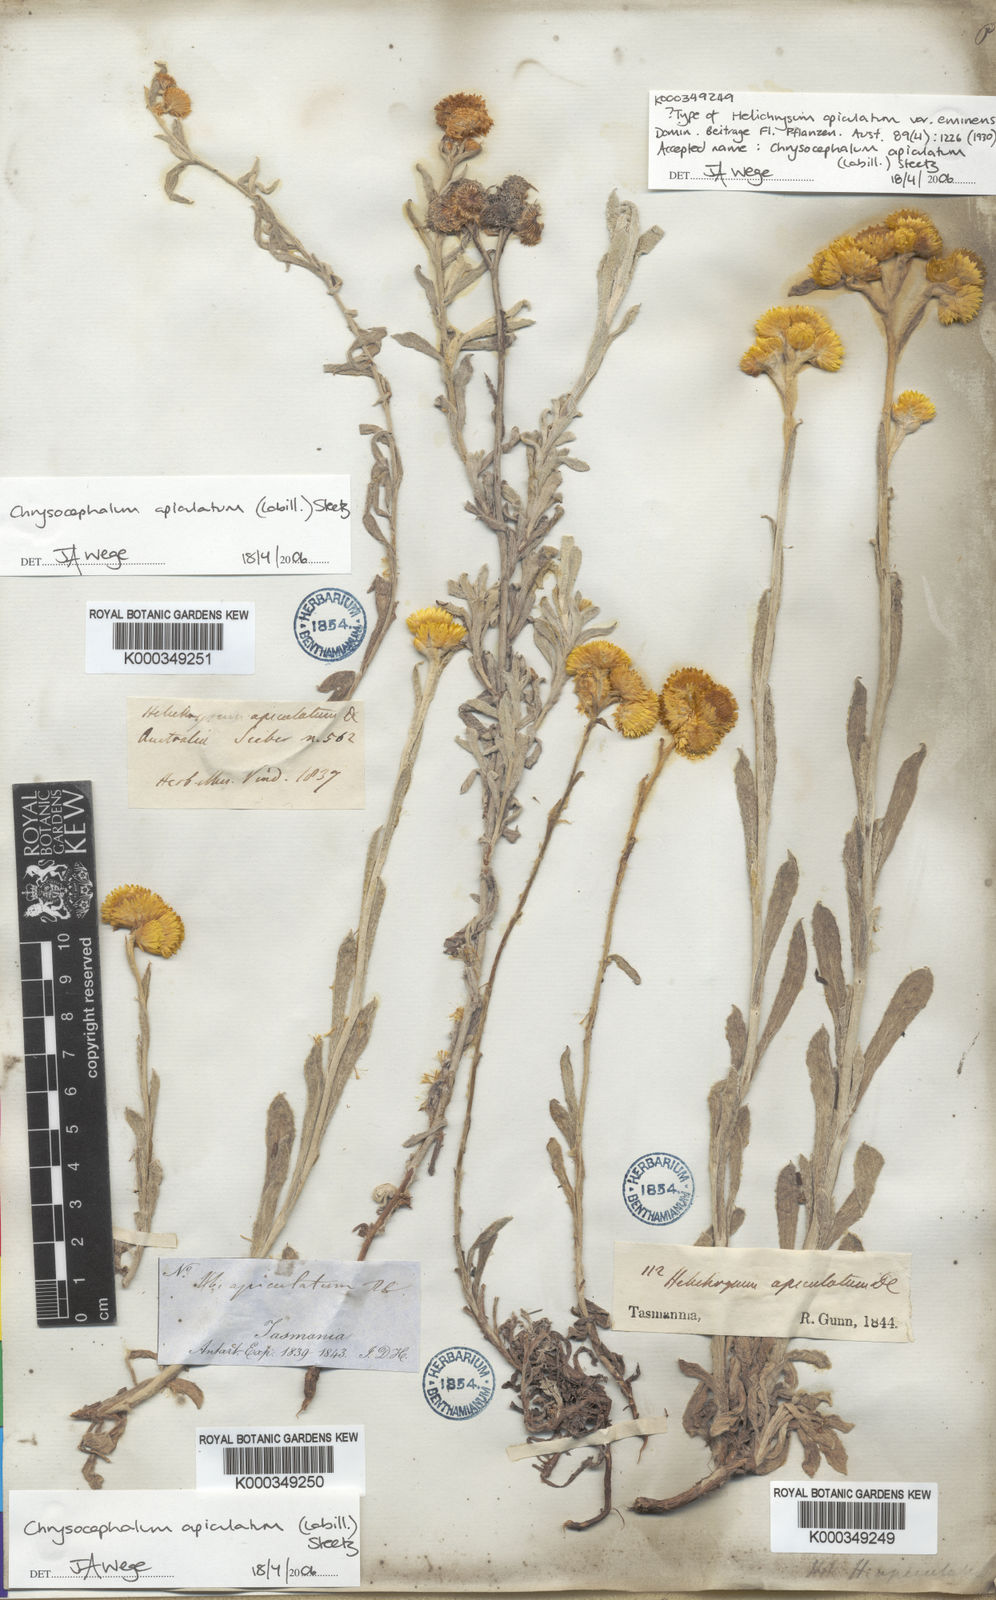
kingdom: Plantae
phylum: Tracheophyta
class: Magnoliopsida
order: Asterales
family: Asteraceae
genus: Chrysocephalum
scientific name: Chrysocephalum apiculatum
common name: Common everlasting
